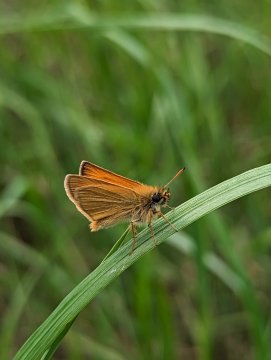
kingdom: Animalia
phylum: Arthropoda
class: Insecta
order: Lepidoptera
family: Hesperiidae
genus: Thymelicus
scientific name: Thymelicus lineola
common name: European Skipper
